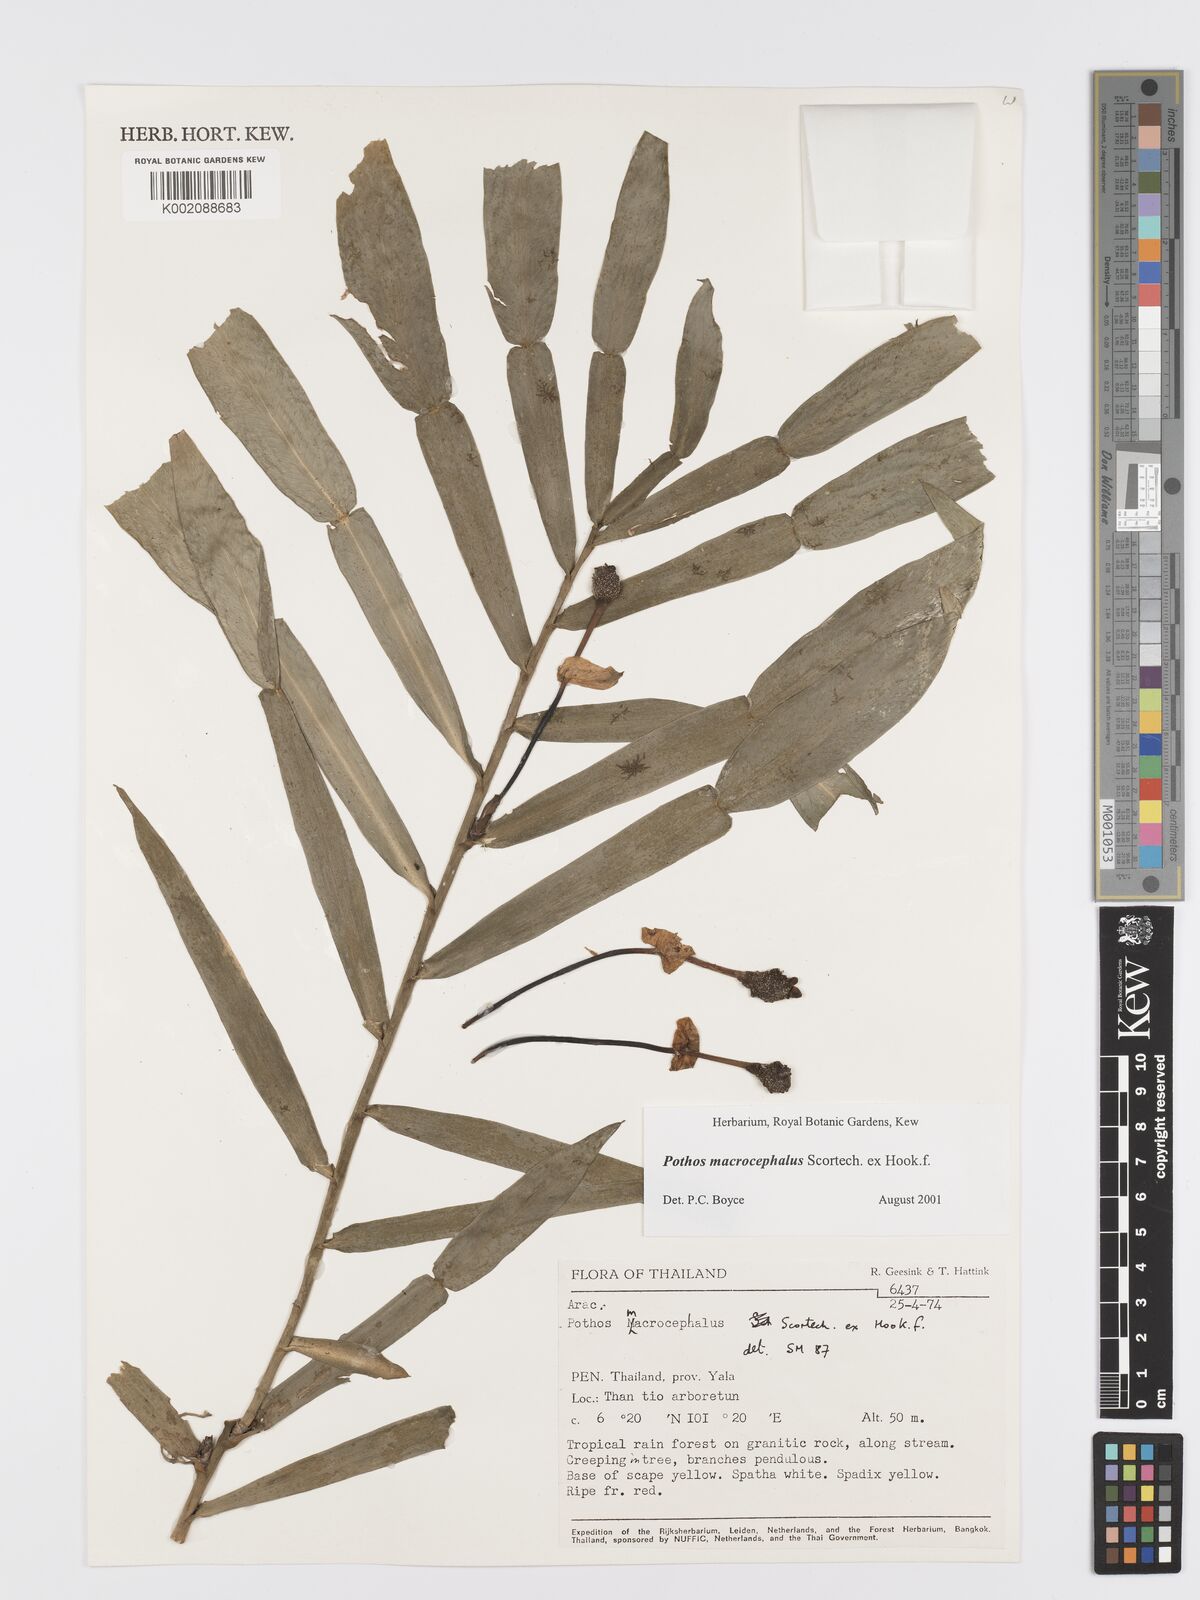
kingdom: Plantae
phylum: Tracheophyta
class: Liliopsida
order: Alismatales
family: Araceae
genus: Pothos
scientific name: Pothos macrocephalus
